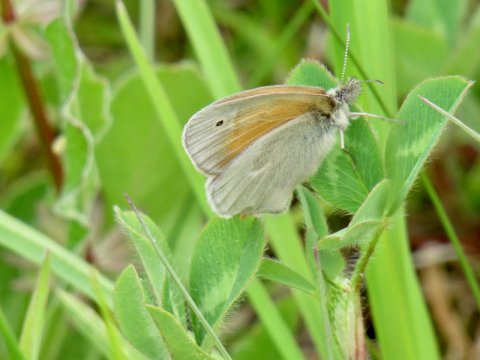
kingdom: Animalia
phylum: Arthropoda
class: Insecta
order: Lepidoptera
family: Nymphalidae
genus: Coenonympha
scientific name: Coenonympha tullia
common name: Large Heath
